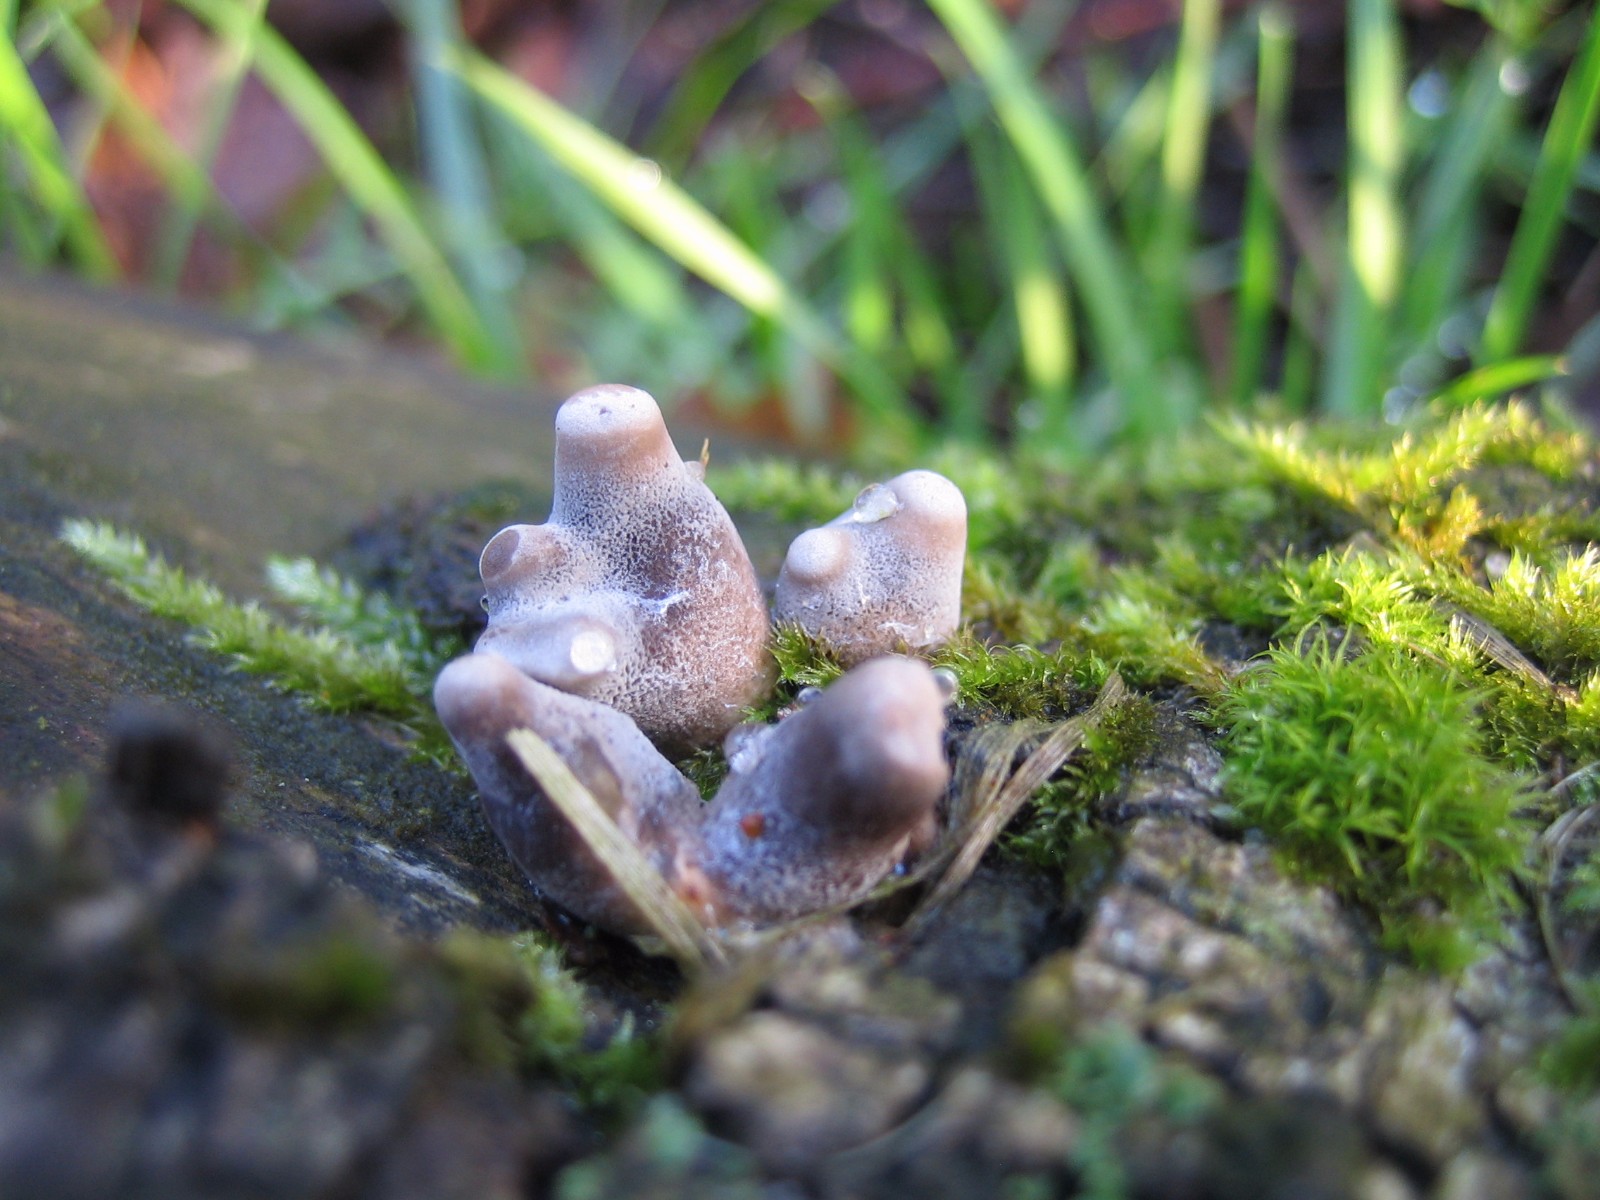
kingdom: Fungi
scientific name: Fungi
